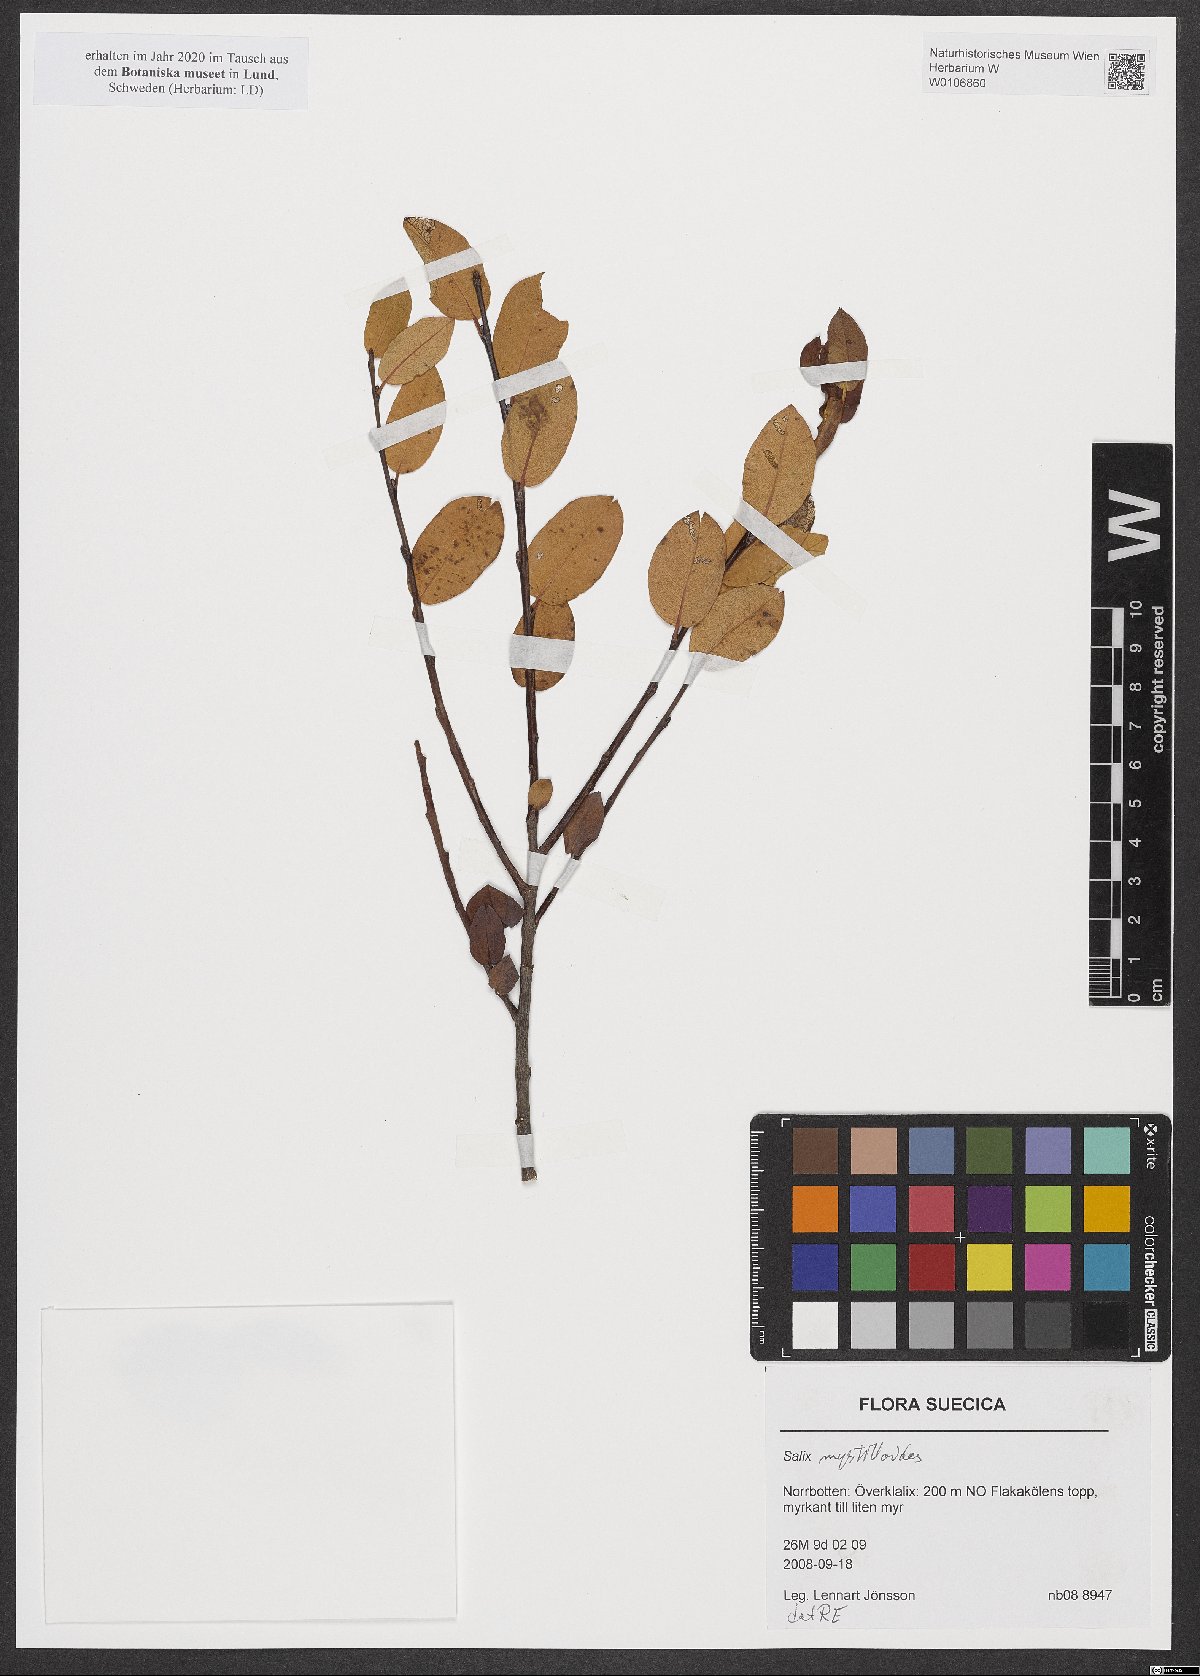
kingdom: Plantae
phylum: Tracheophyta
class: Magnoliopsida
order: Malpighiales
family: Salicaceae
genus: Salix
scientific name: Salix myrtilloides
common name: Myrtle-leaved willow
